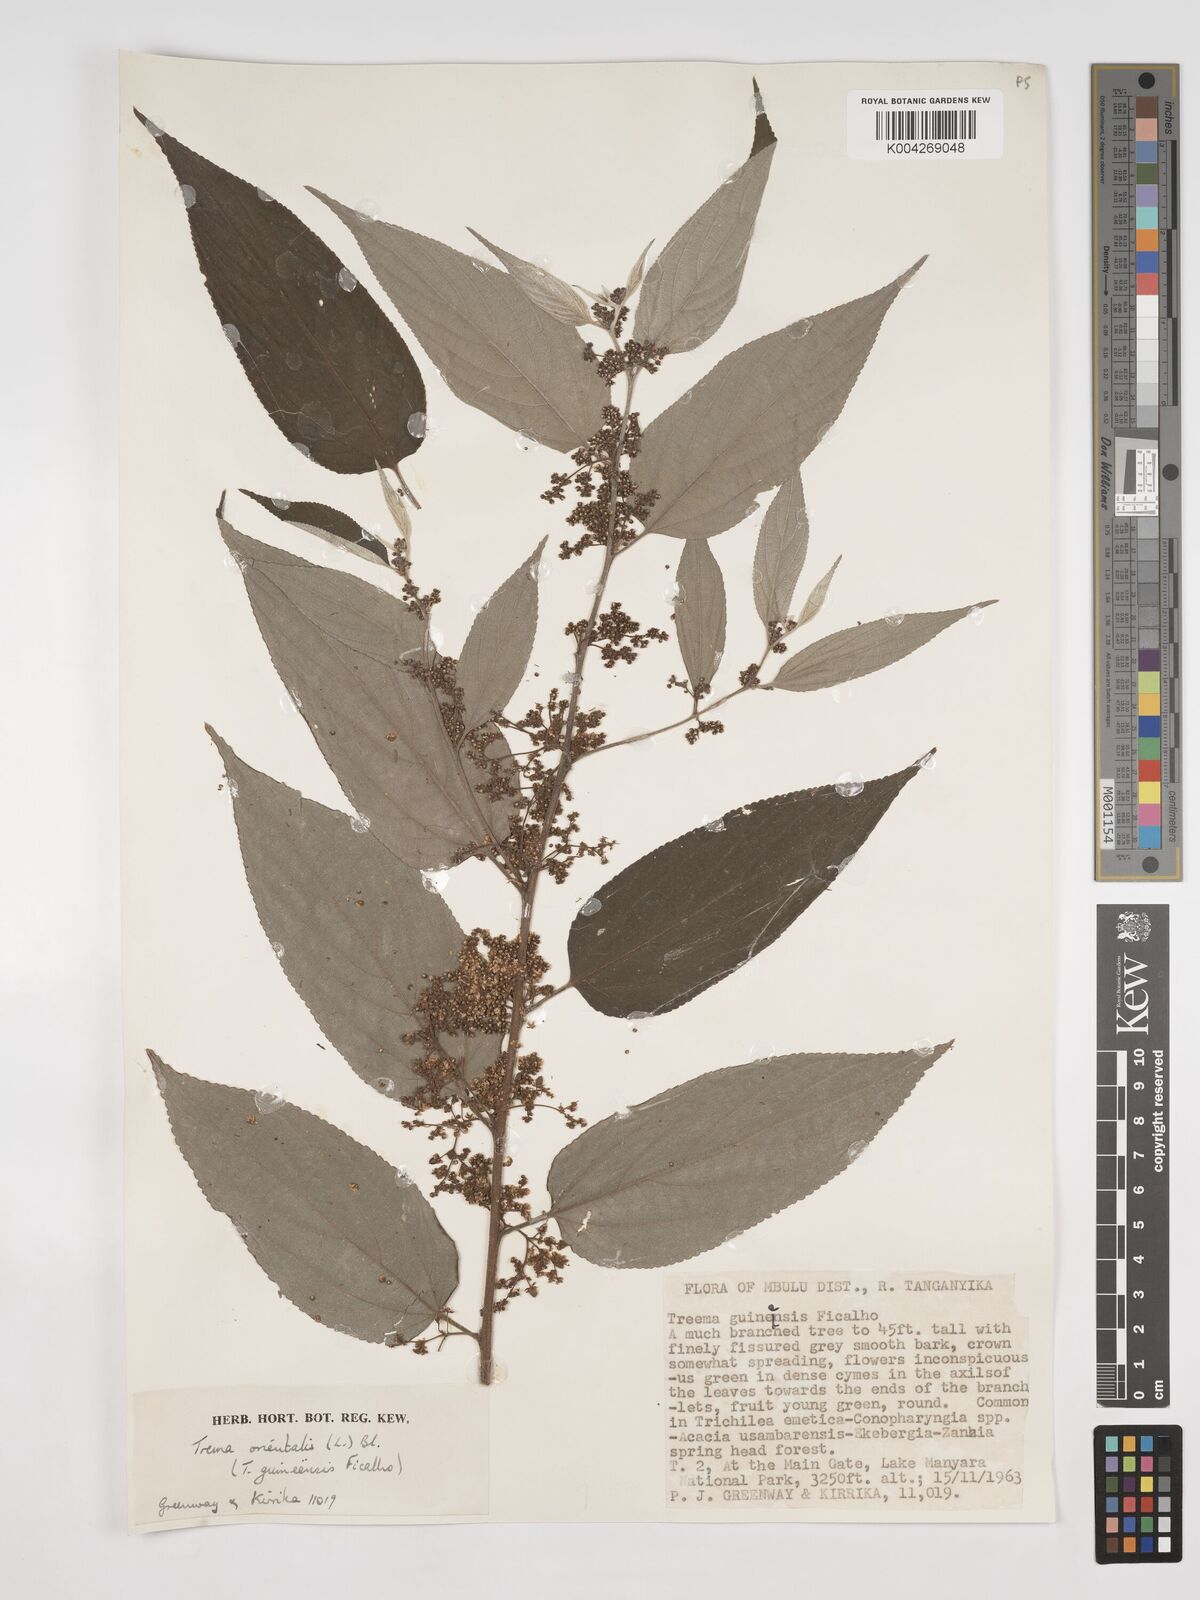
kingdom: Plantae
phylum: Tracheophyta
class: Magnoliopsida
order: Rosales
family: Cannabaceae
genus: Trema
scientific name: Trema orientale
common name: Indian charcoal tree
